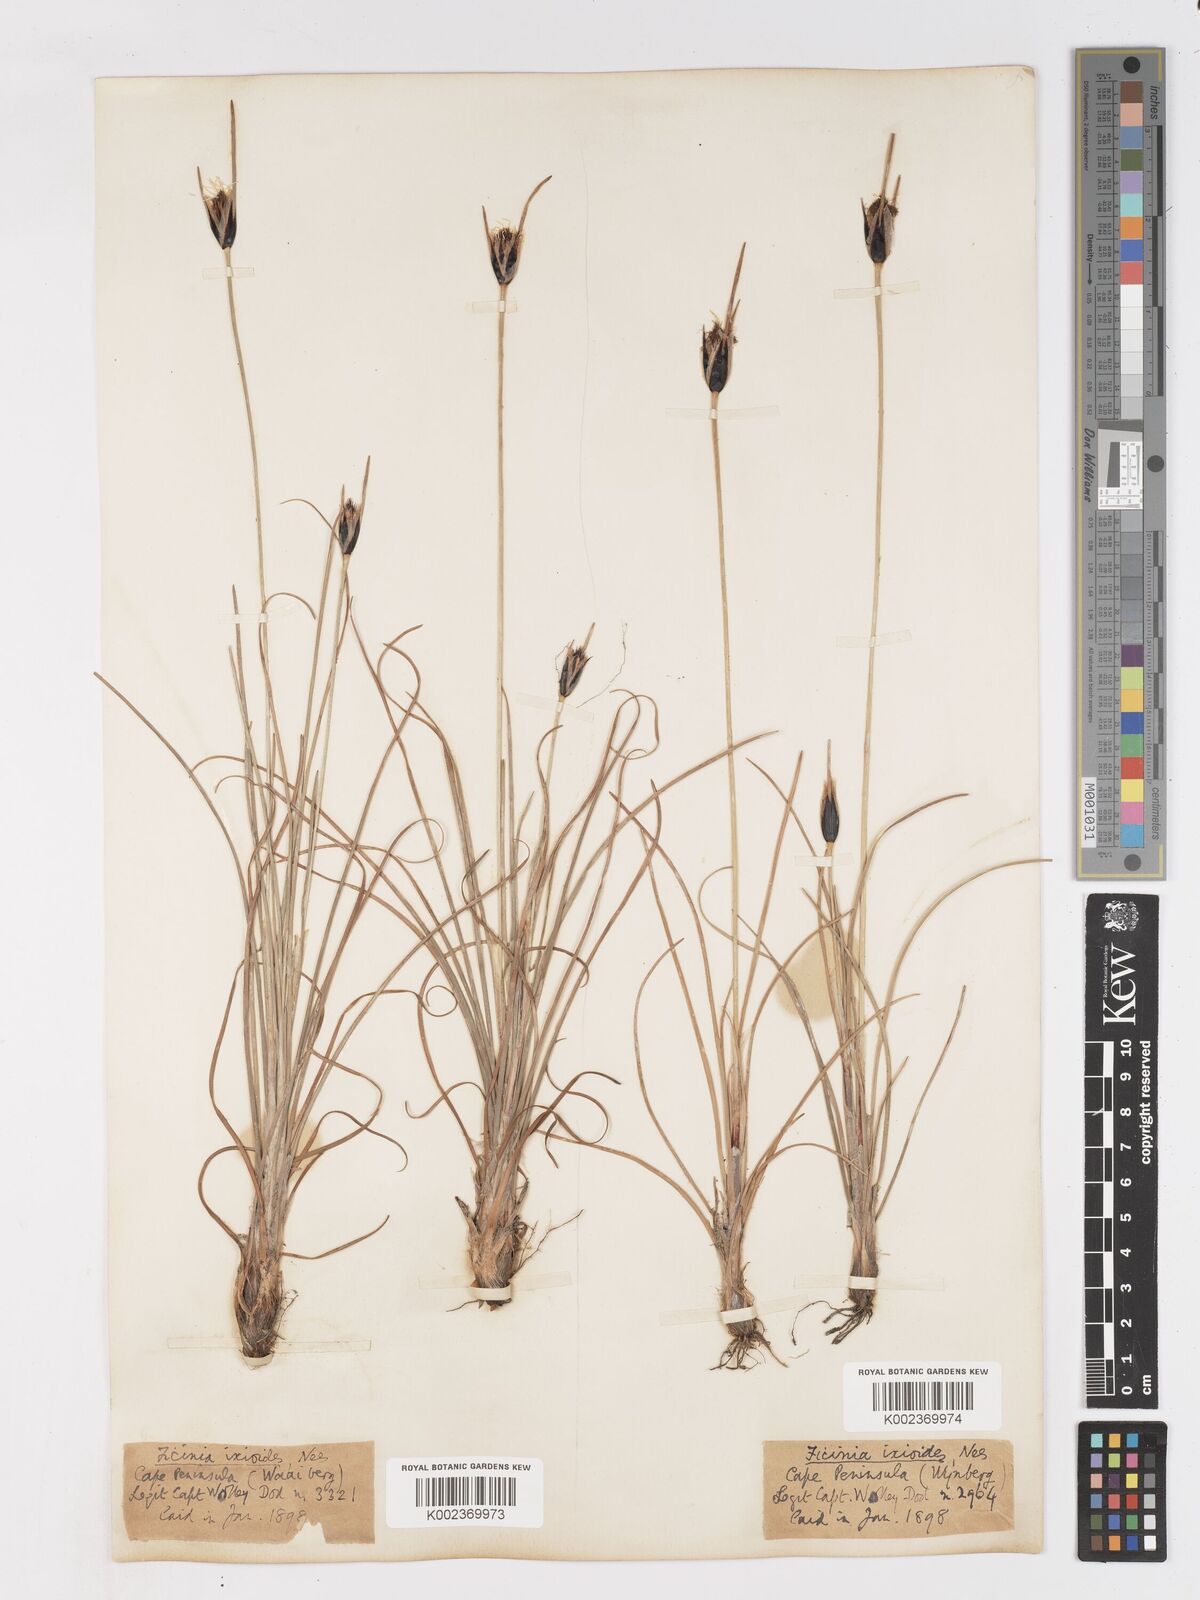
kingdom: Plantae
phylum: Tracheophyta
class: Liliopsida
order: Poales
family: Cyperaceae
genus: Ficinia
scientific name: Ficinia ixioides
